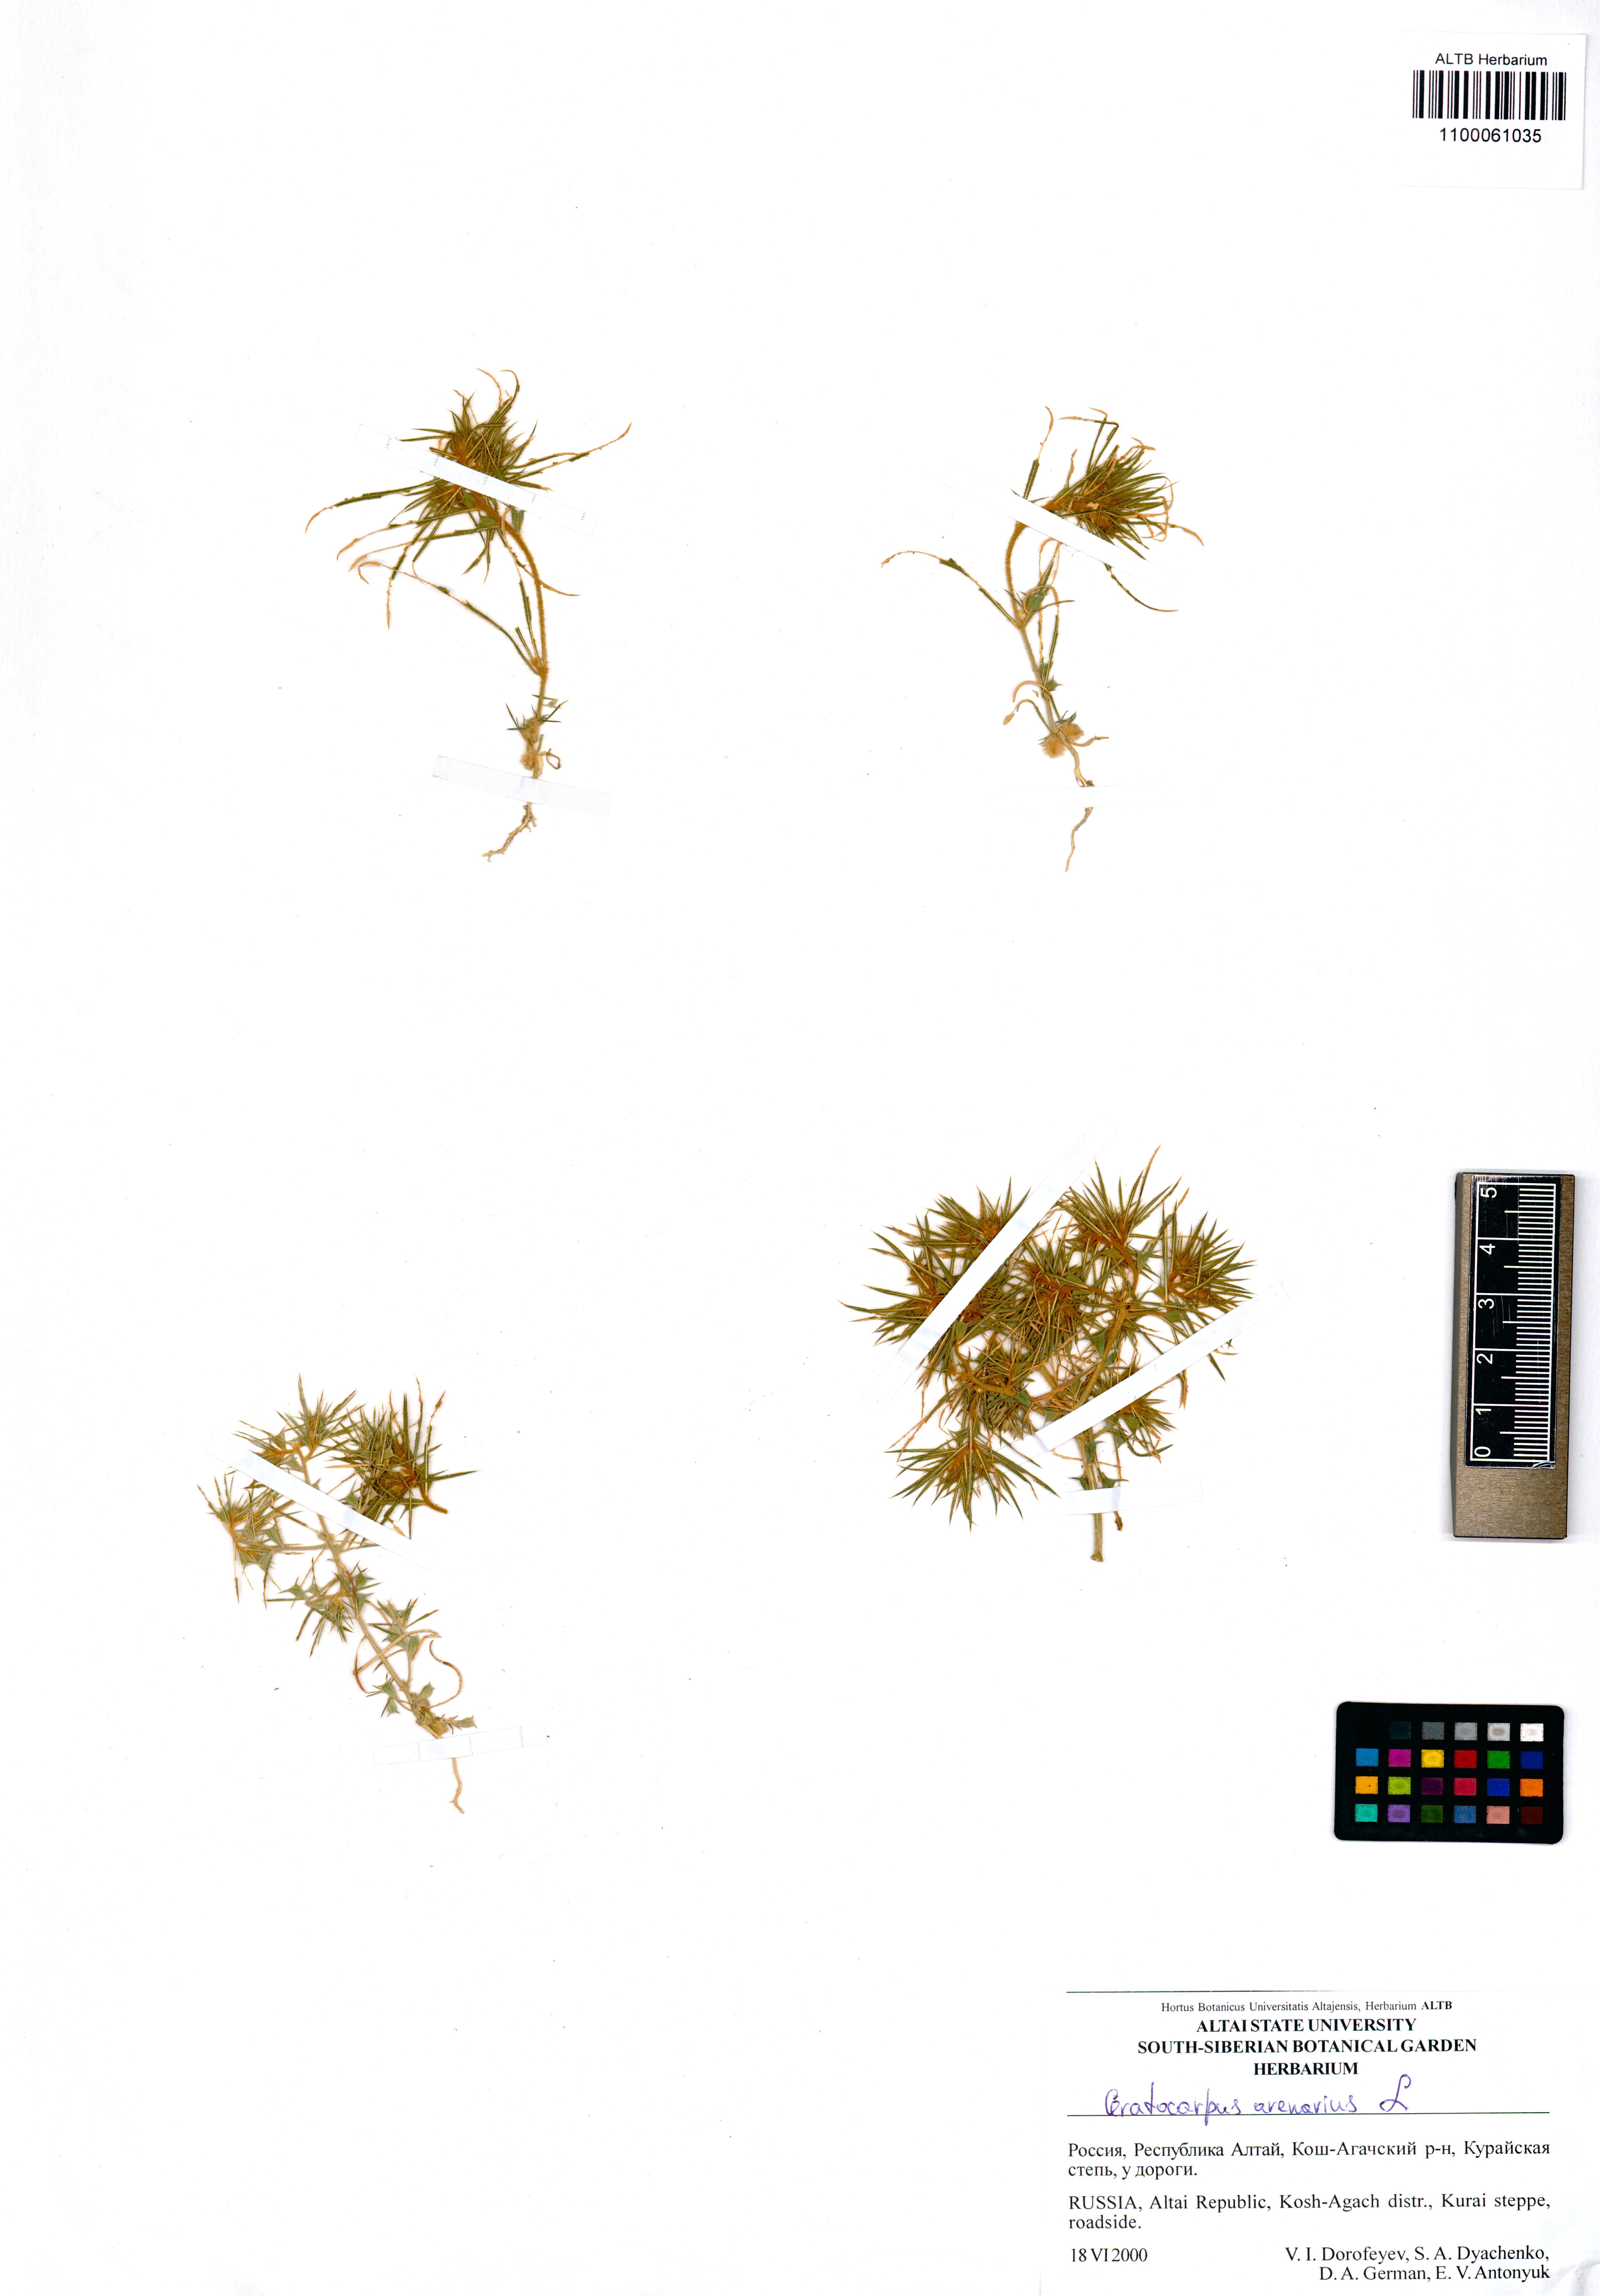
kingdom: Plantae
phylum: Tracheophyta
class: Magnoliopsida
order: Caryophyllales
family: Amaranthaceae
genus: Ceratocarpus
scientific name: Ceratocarpus arenarius
